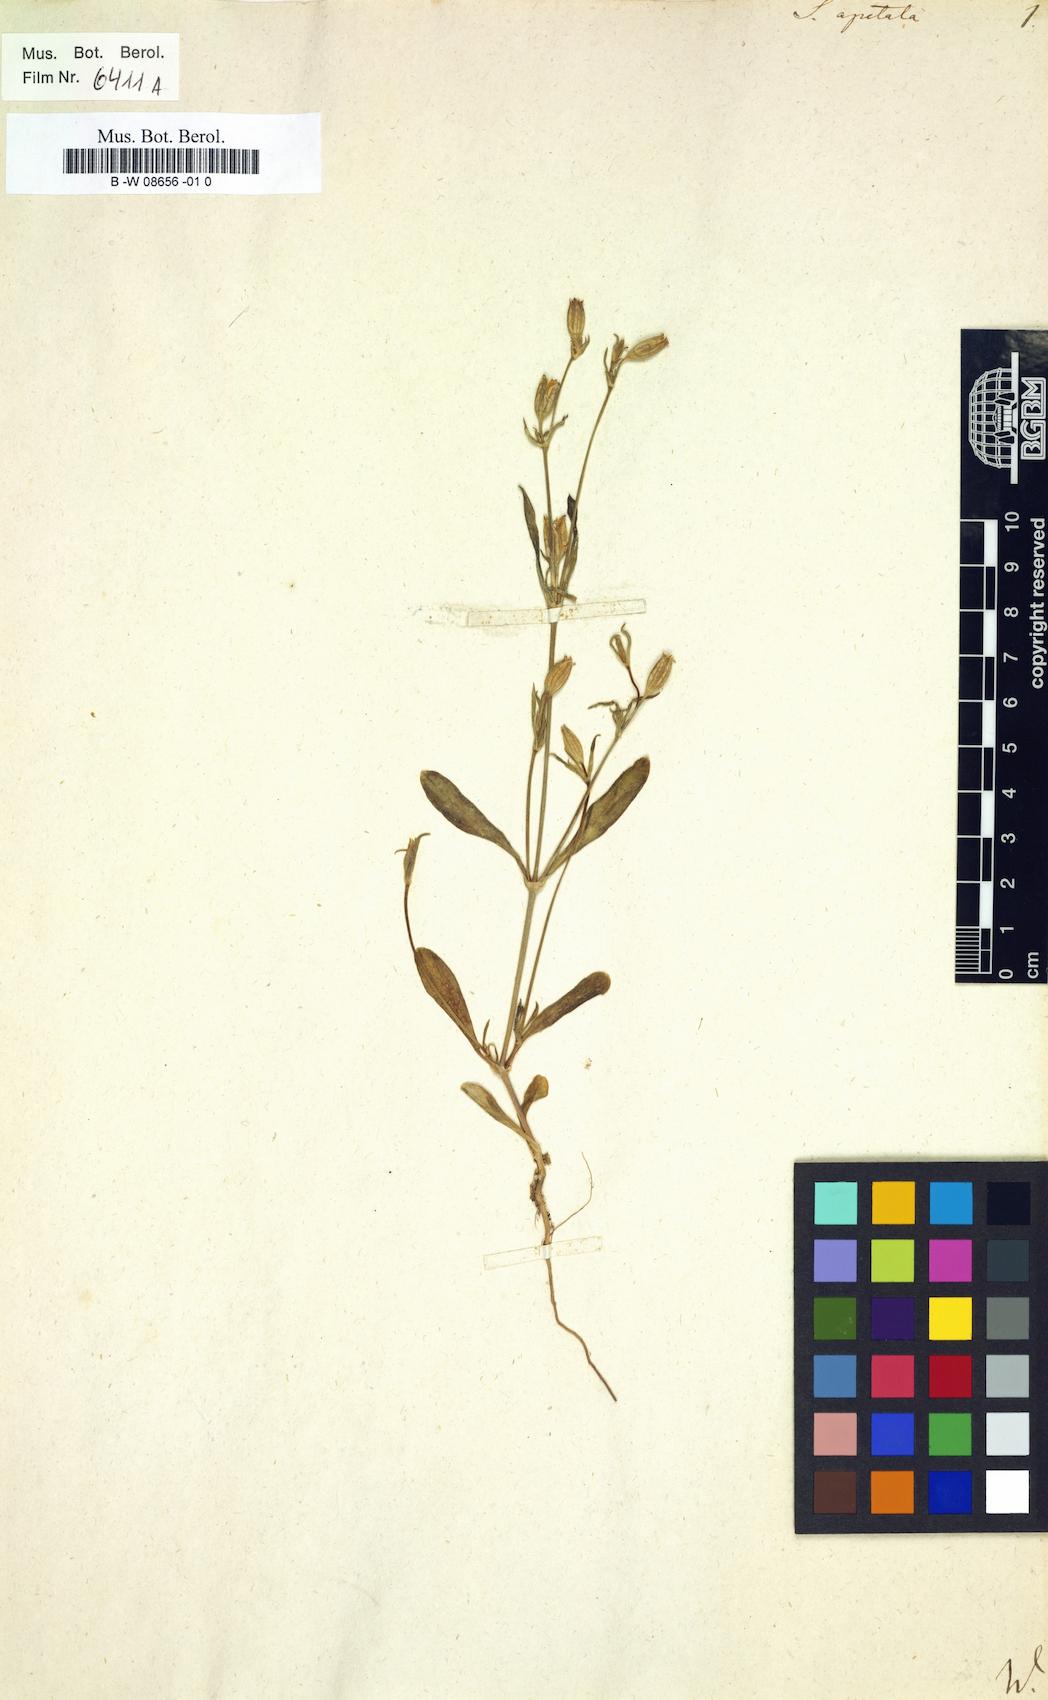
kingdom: Plantae
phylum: Tracheophyta
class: Magnoliopsida
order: Caryophyllales
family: Caryophyllaceae
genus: Silene
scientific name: Silene apetala
